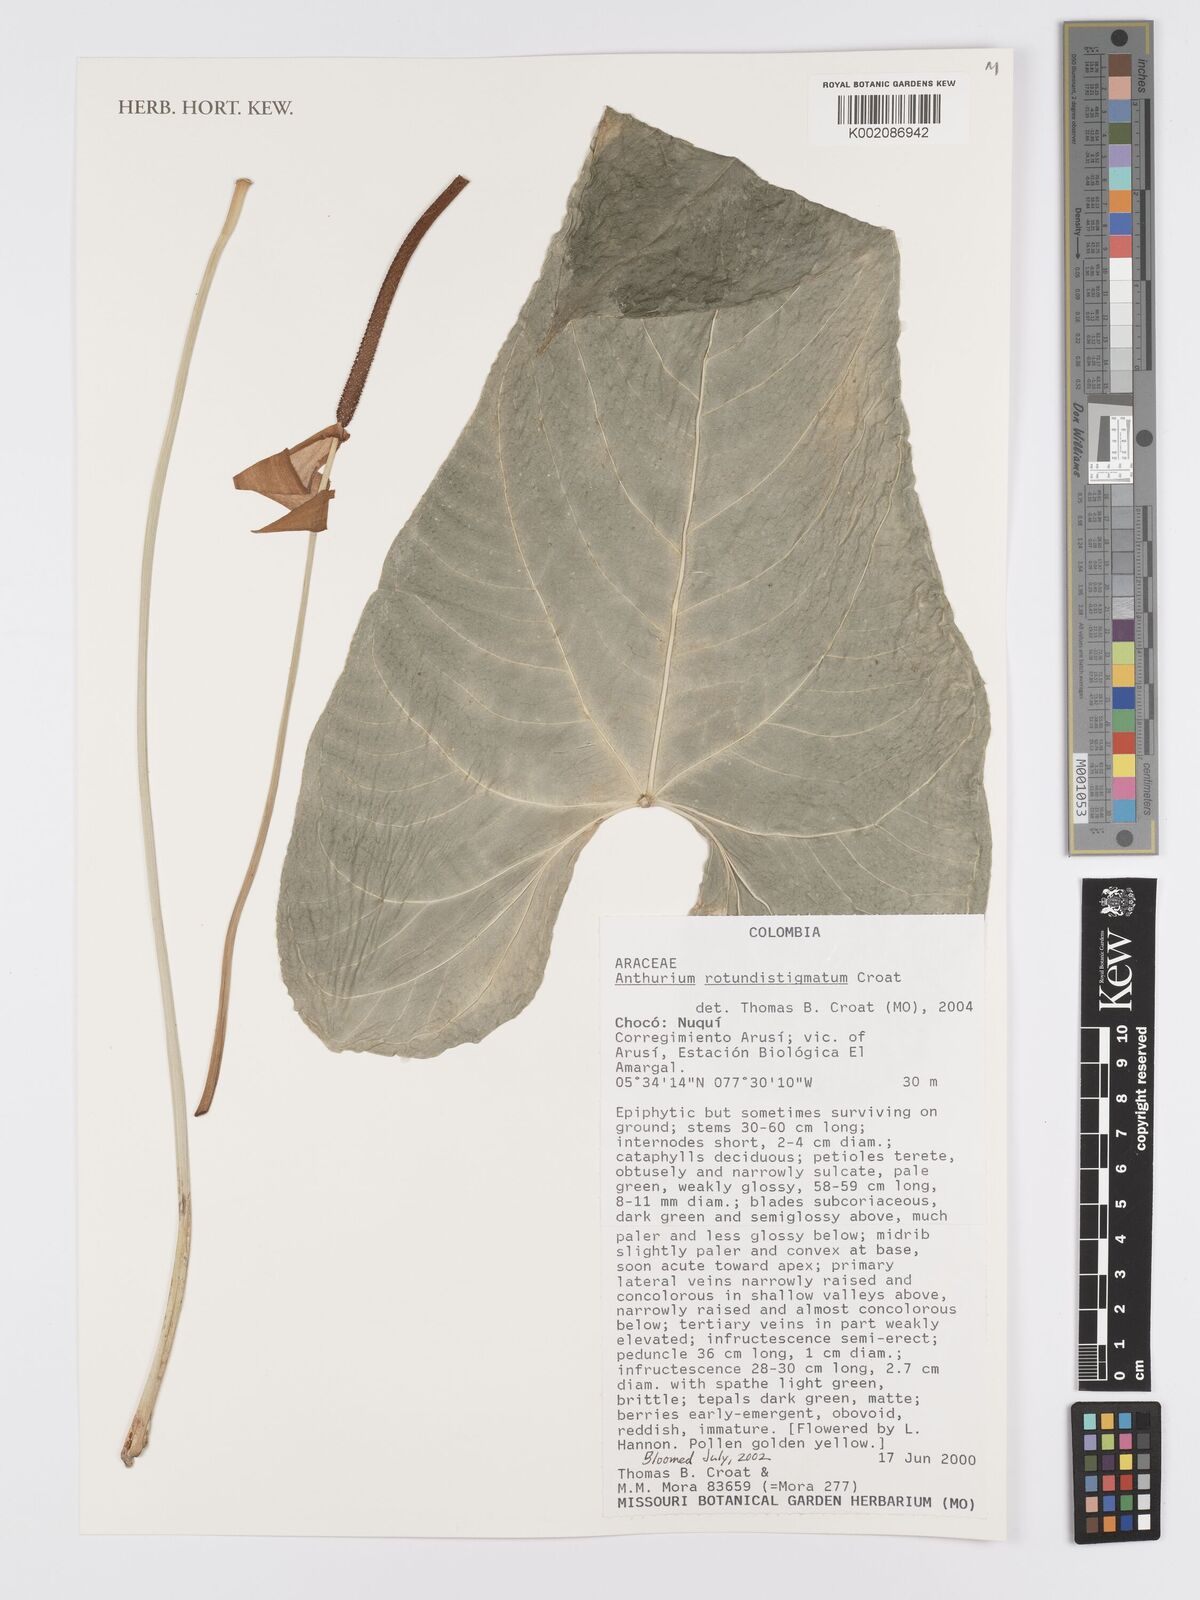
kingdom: Plantae
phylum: Tracheophyta
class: Liliopsida
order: Alismatales
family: Araceae
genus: Anthurium
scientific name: Anthurium rotundistigmatum
